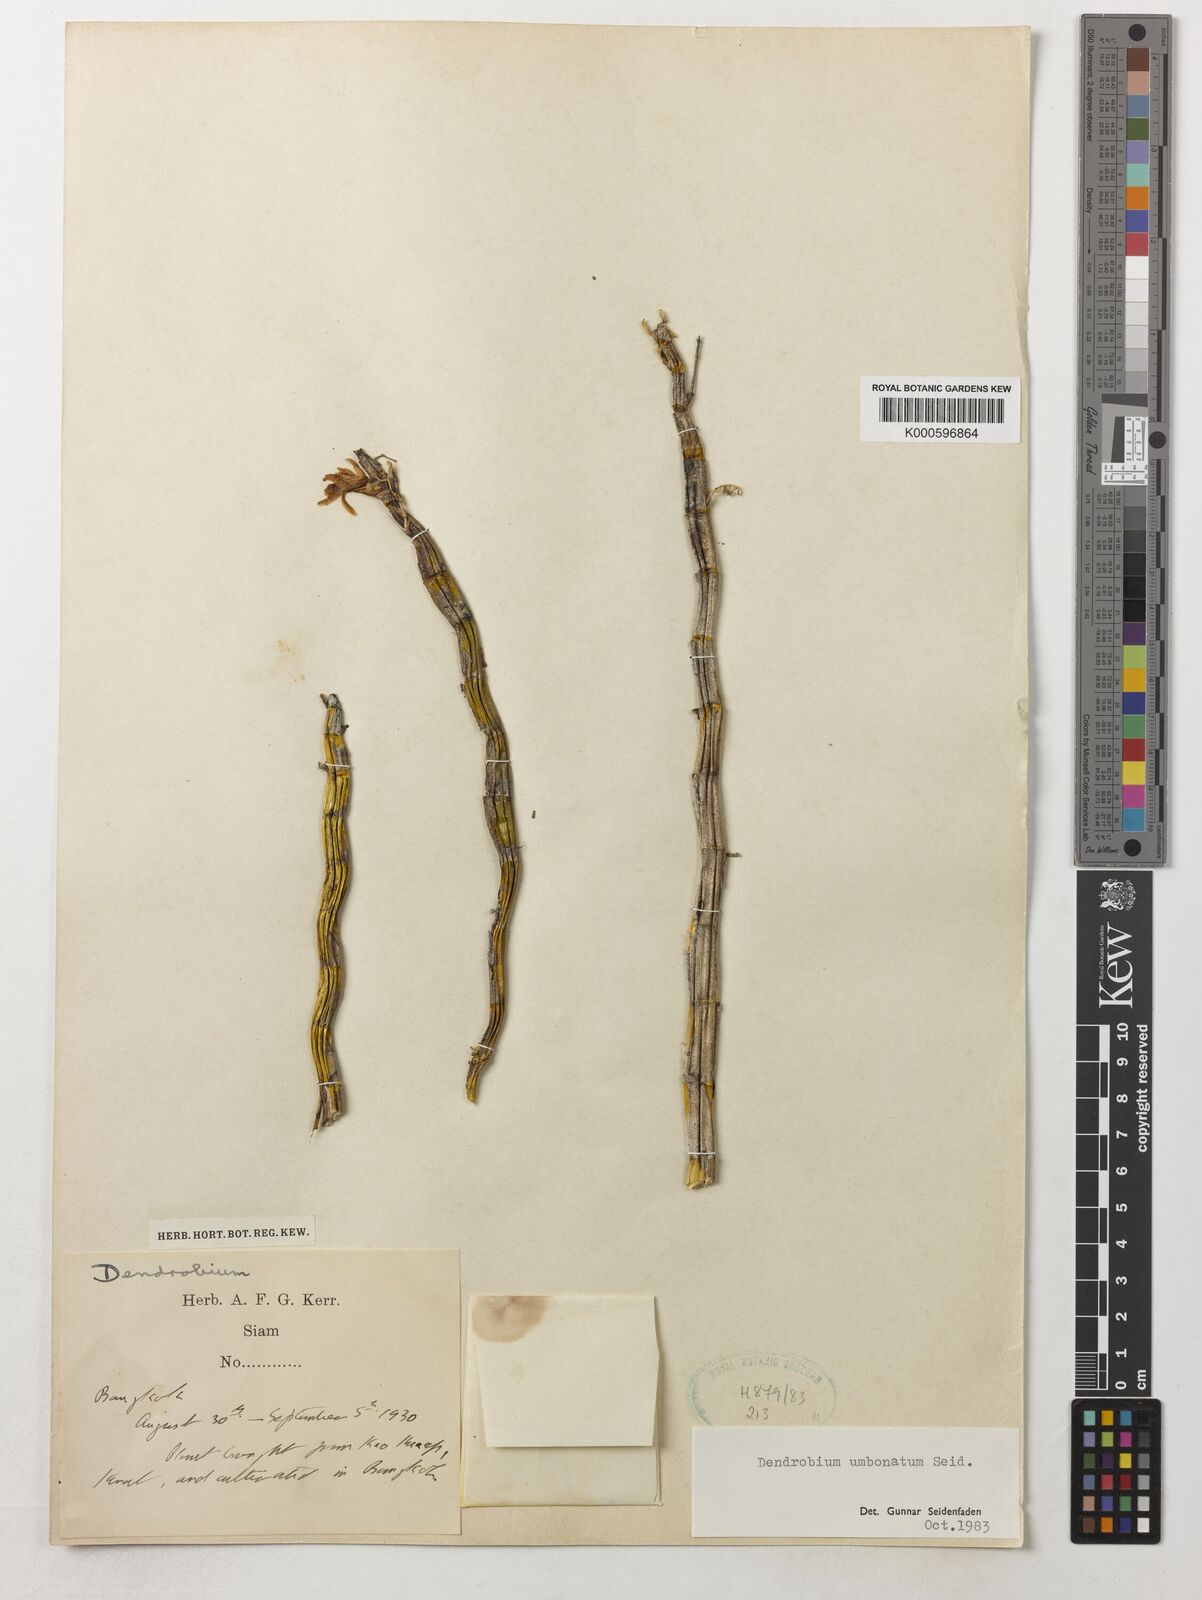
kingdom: Plantae
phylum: Tracheophyta
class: Liliopsida
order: Asparagales
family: Orchidaceae
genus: Dendrobium
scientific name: Dendrobium umbonatum
